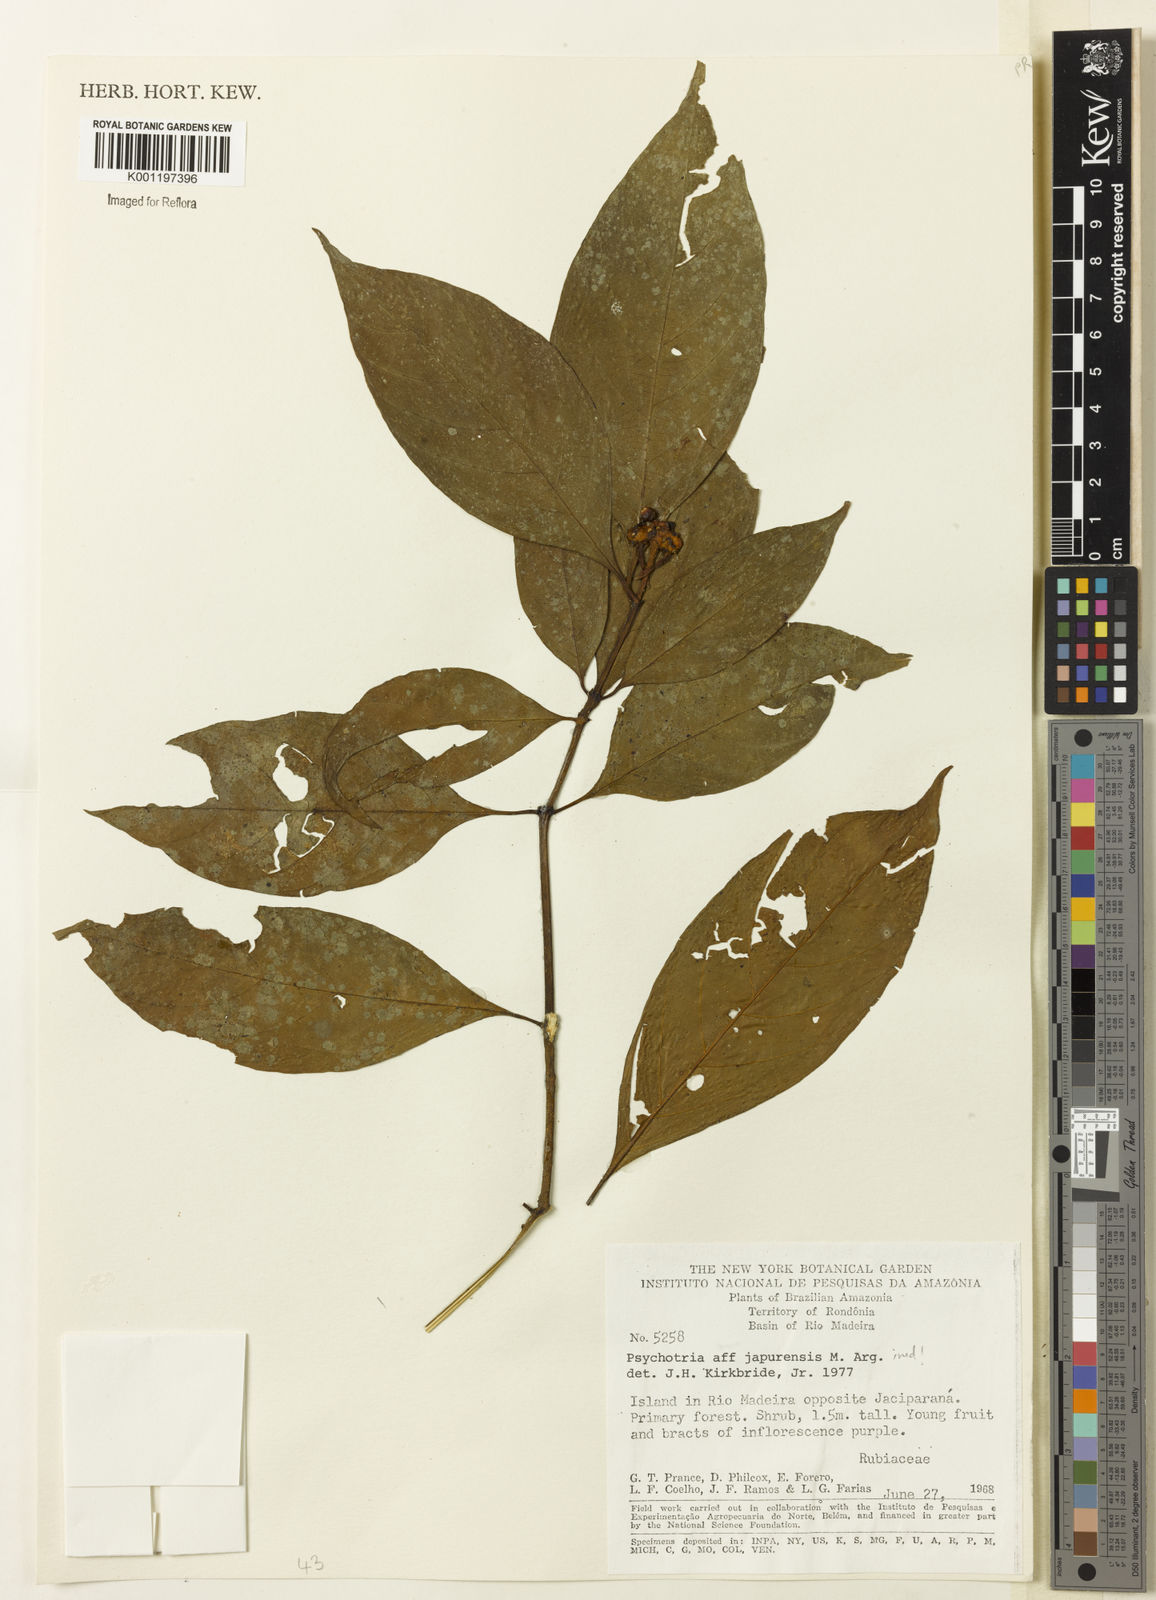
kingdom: Plantae
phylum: Tracheophyta
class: Magnoliopsida
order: Gentianales
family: Rubiaceae
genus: Psychotria
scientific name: Psychotria
